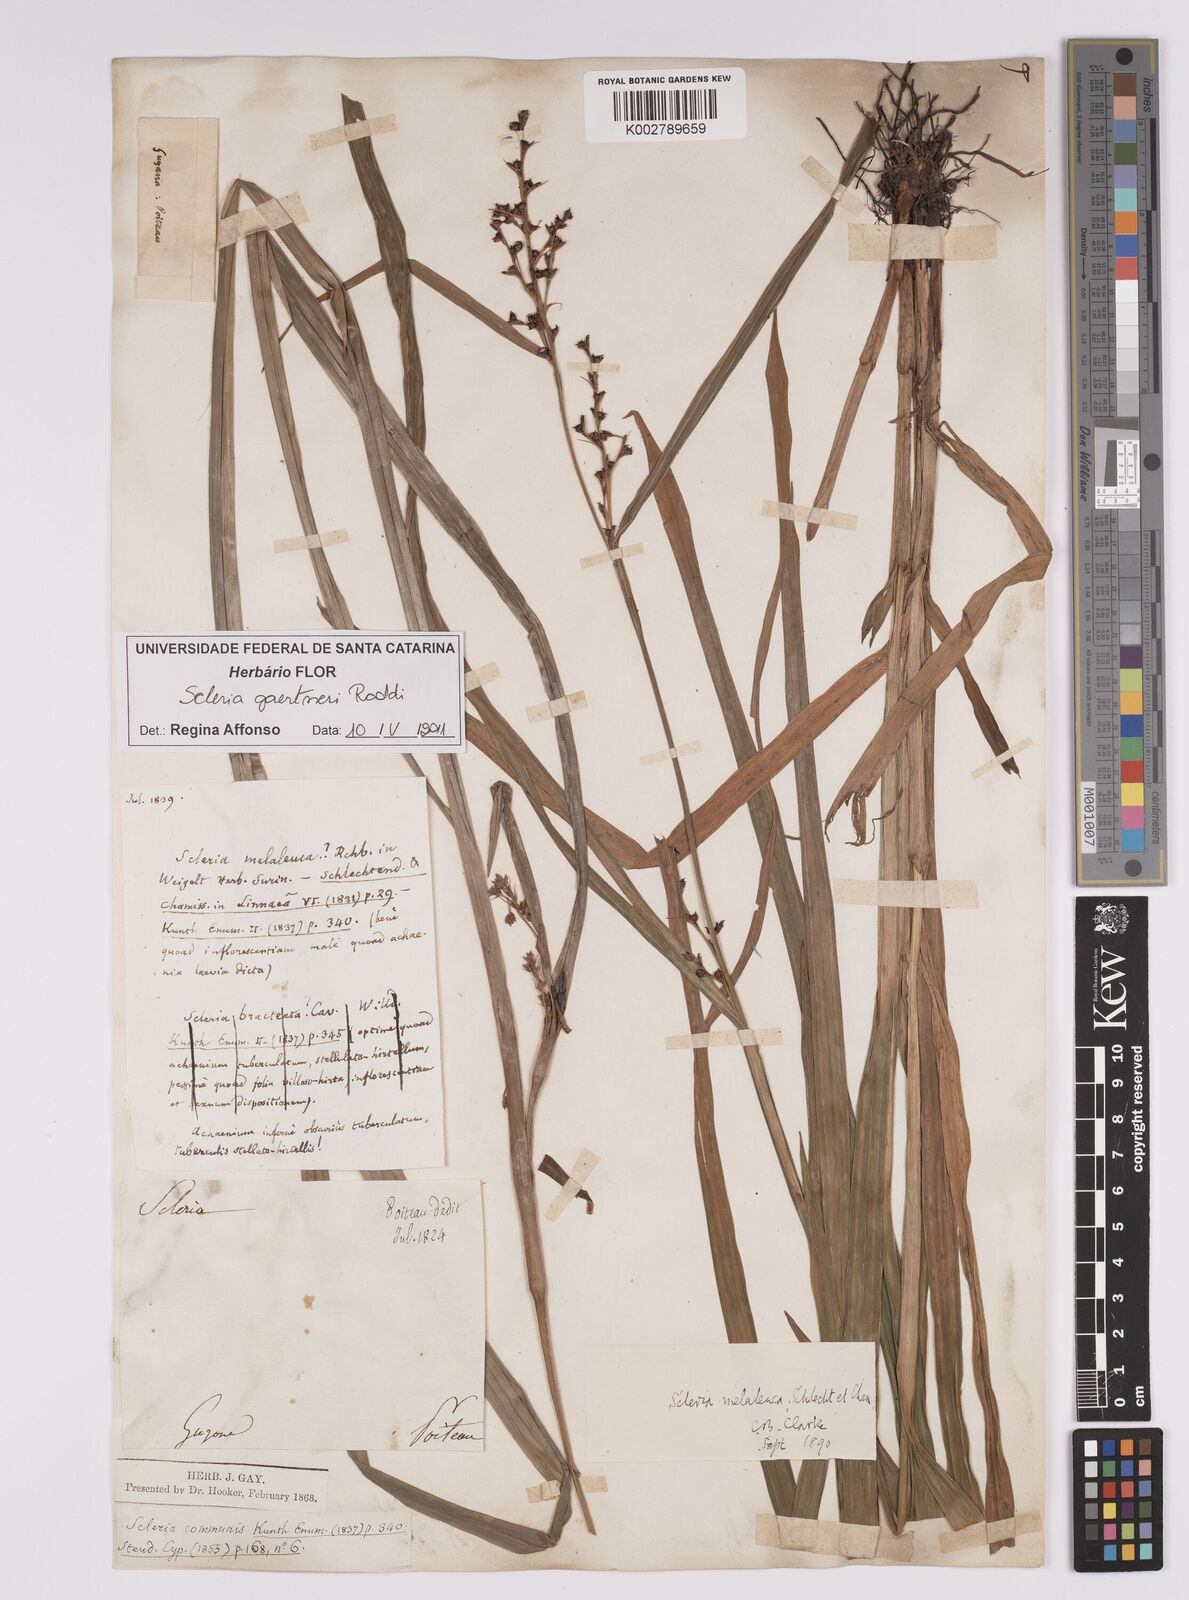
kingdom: Plantae
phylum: Tracheophyta
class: Liliopsida
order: Poales
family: Cyperaceae
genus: Scleria
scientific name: Scleria gaertneri
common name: Cortadera blanca
